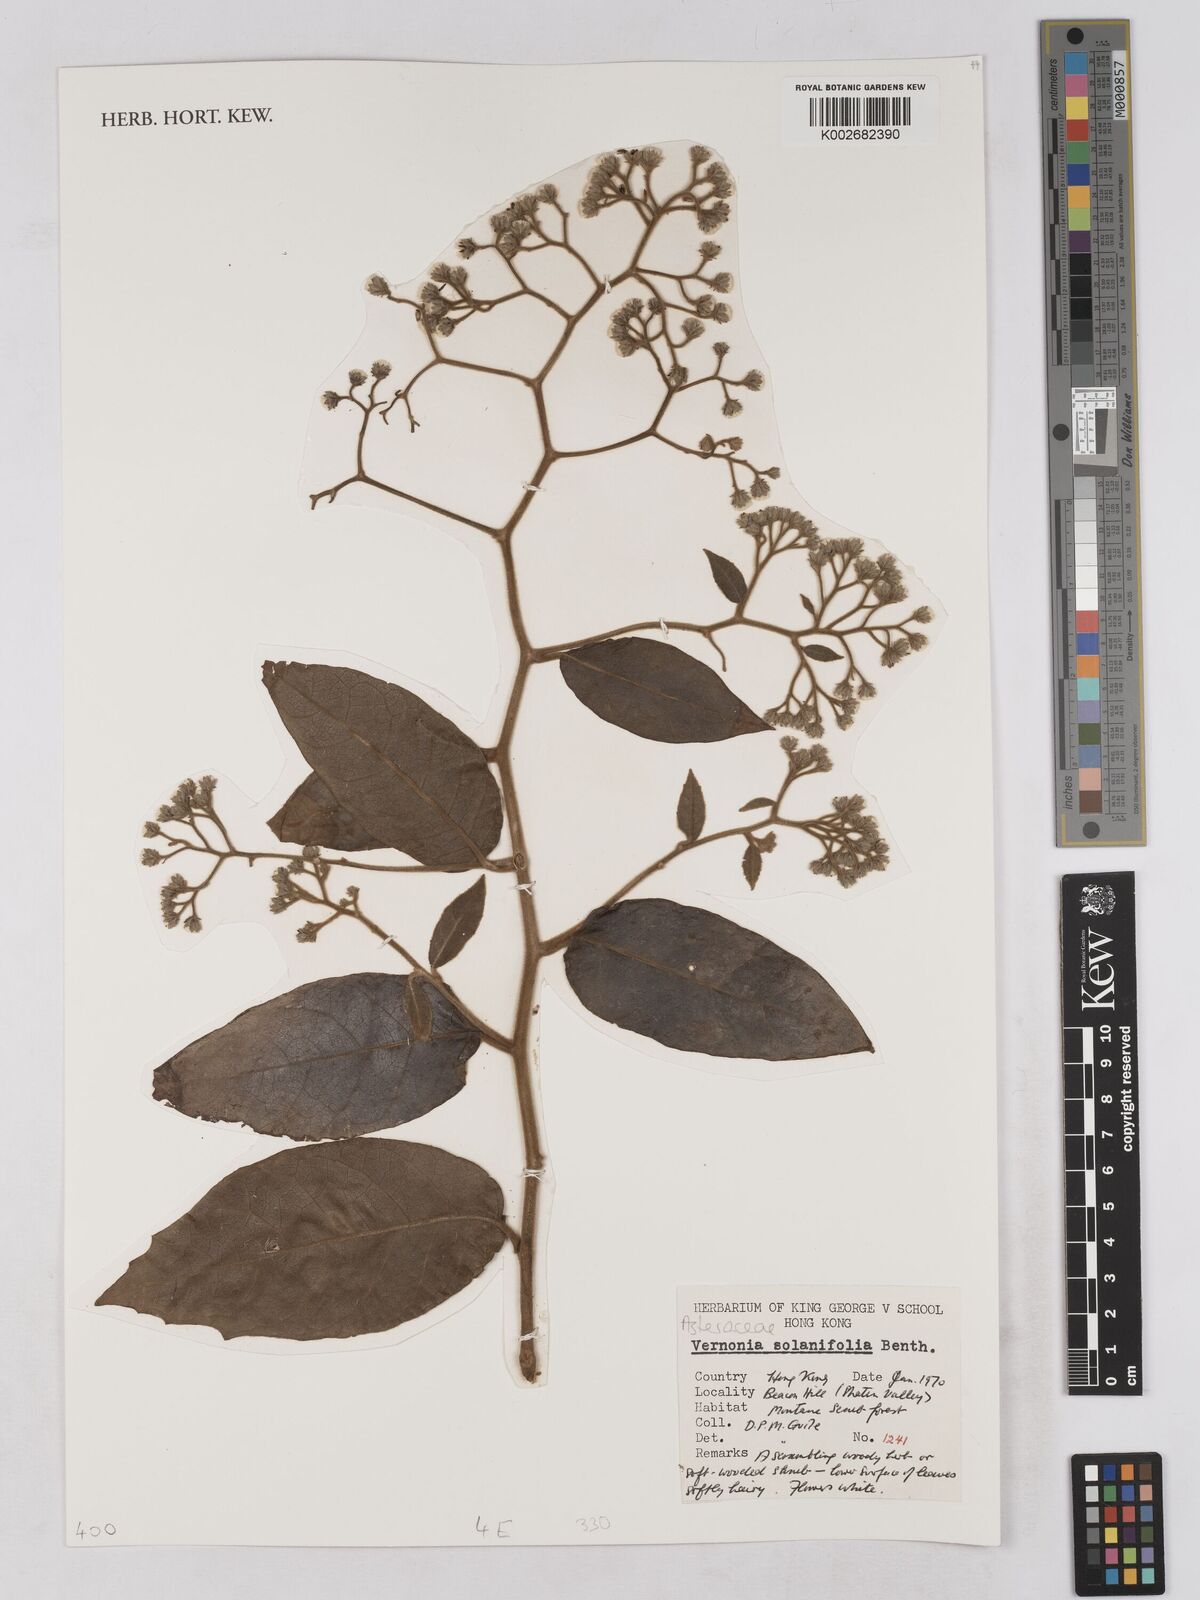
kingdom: Plantae
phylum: Tracheophyta
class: Magnoliopsida
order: Asterales
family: Asteraceae
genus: Strobocalyx
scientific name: Strobocalyx solanifolia
